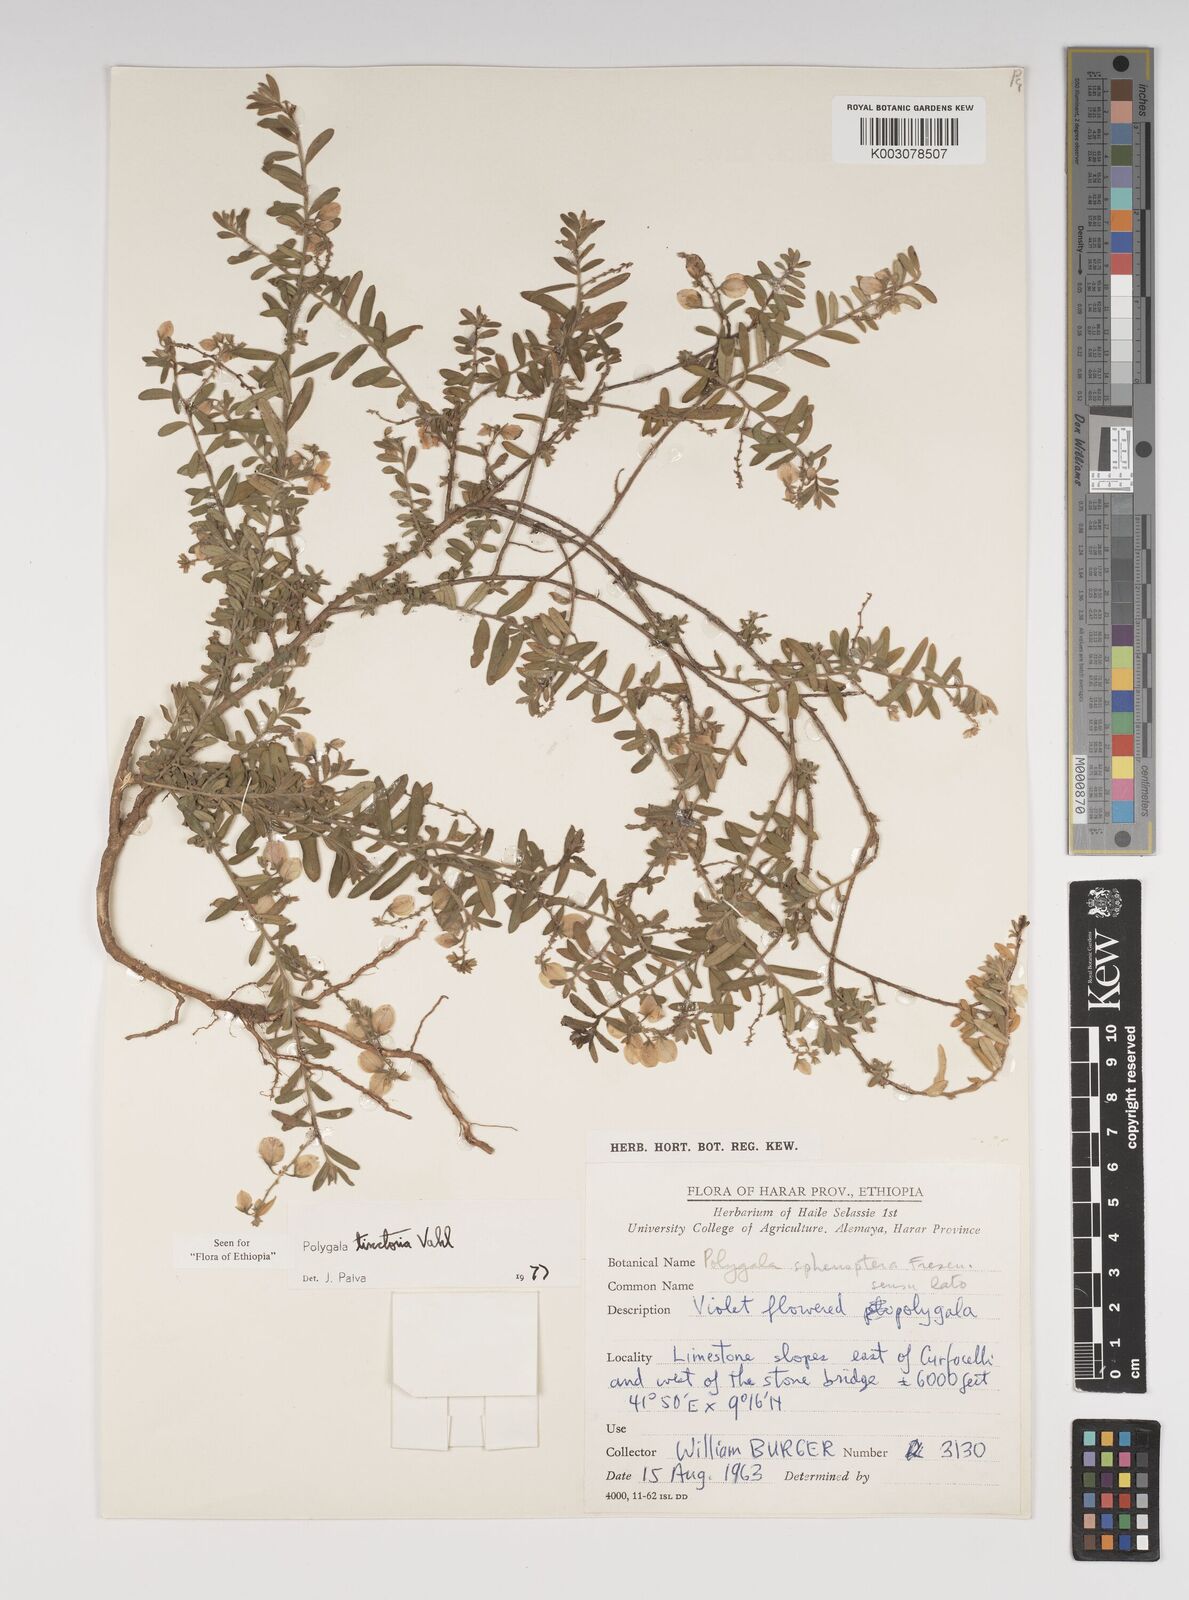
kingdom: Plantae
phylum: Tracheophyta
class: Magnoliopsida
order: Fabales
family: Polygalaceae
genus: Polygala
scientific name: Polygala tinctoria
